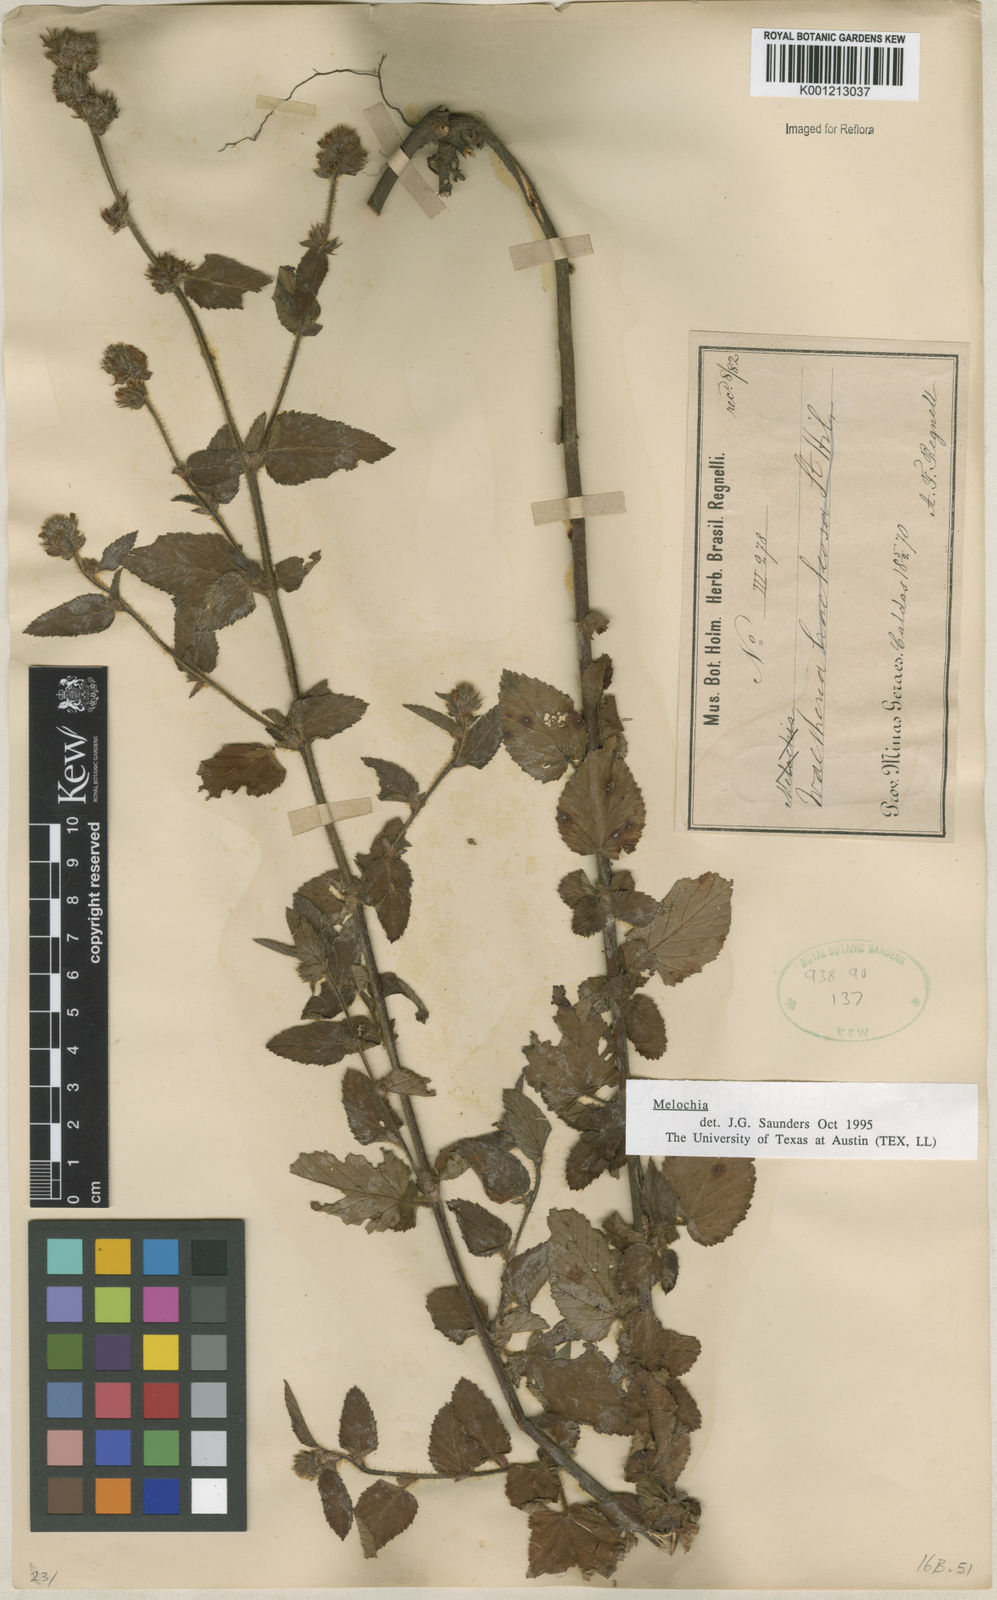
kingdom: Plantae
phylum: Tracheophyta
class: Magnoliopsida
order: Malvales
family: Malvaceae
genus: Melochia
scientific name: Melochia
